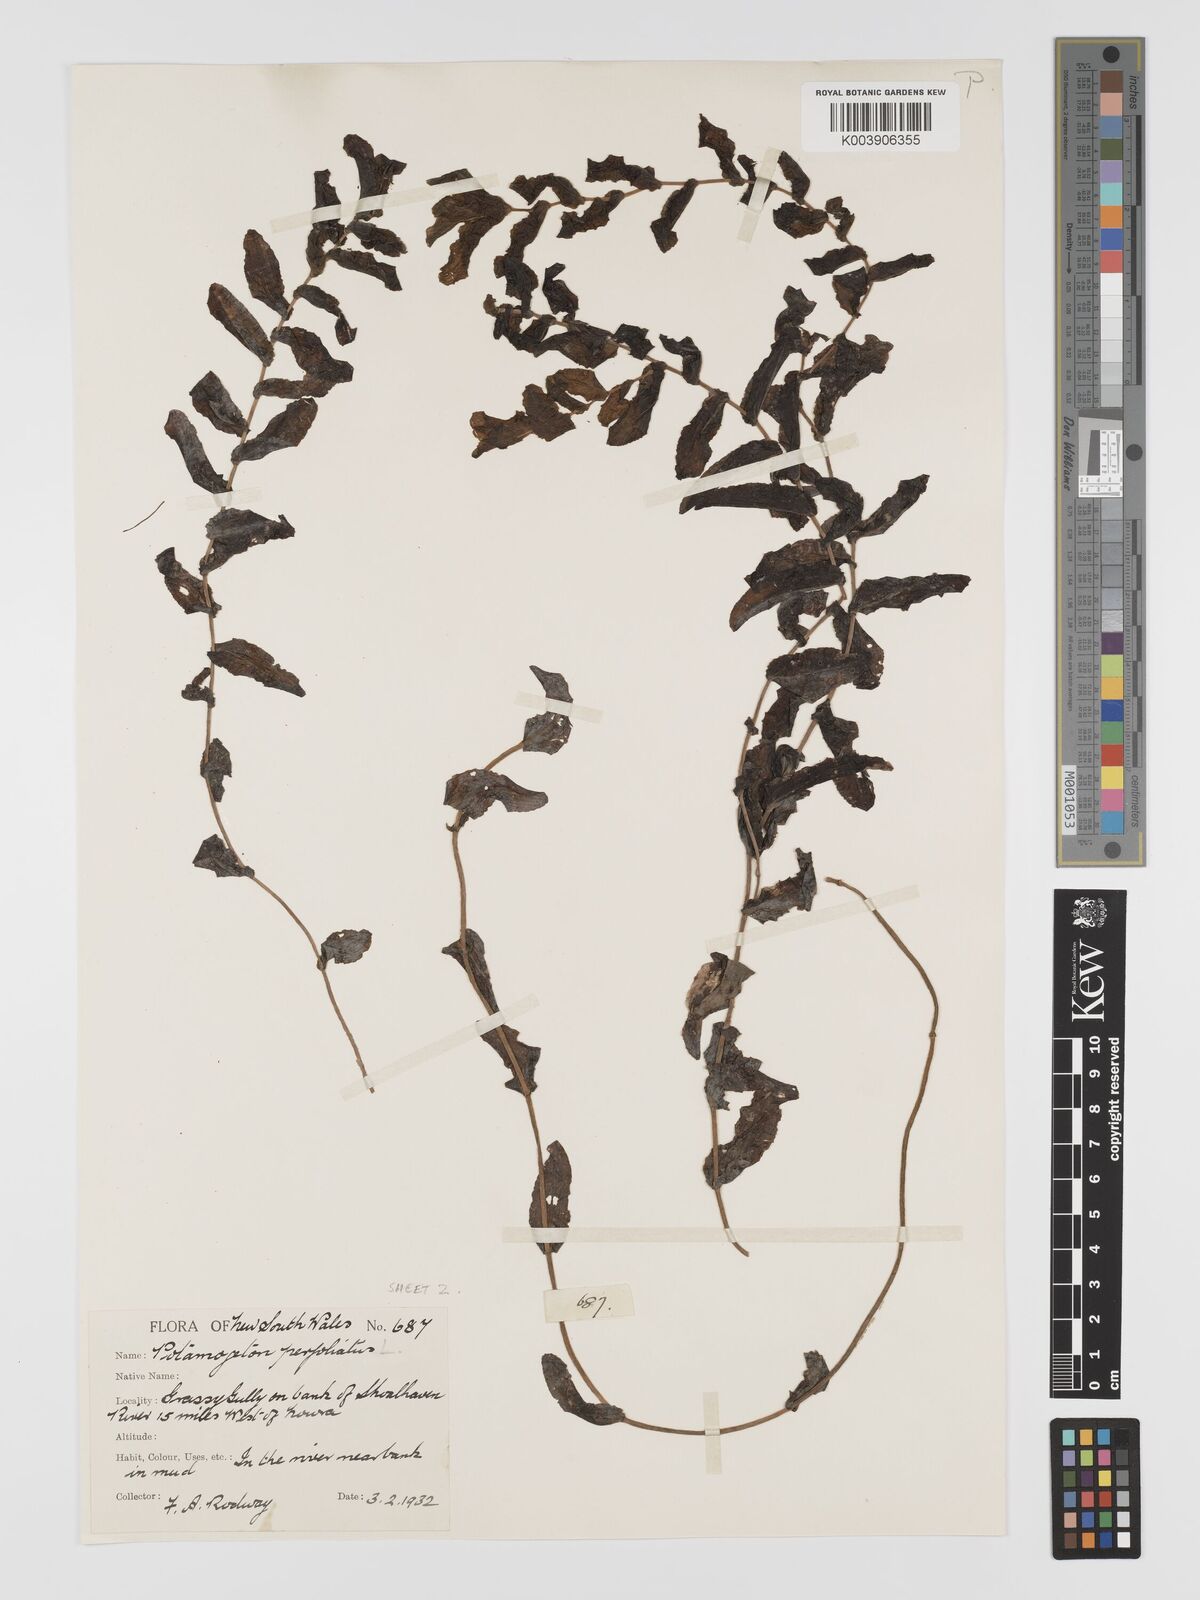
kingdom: Plantae
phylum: Tracheophyta
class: Liliopsida
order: Alismatales
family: Potamogetonaceae
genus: Potamogeton
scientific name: Potamogeton perfoliatus
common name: Perfoliate pondweed
